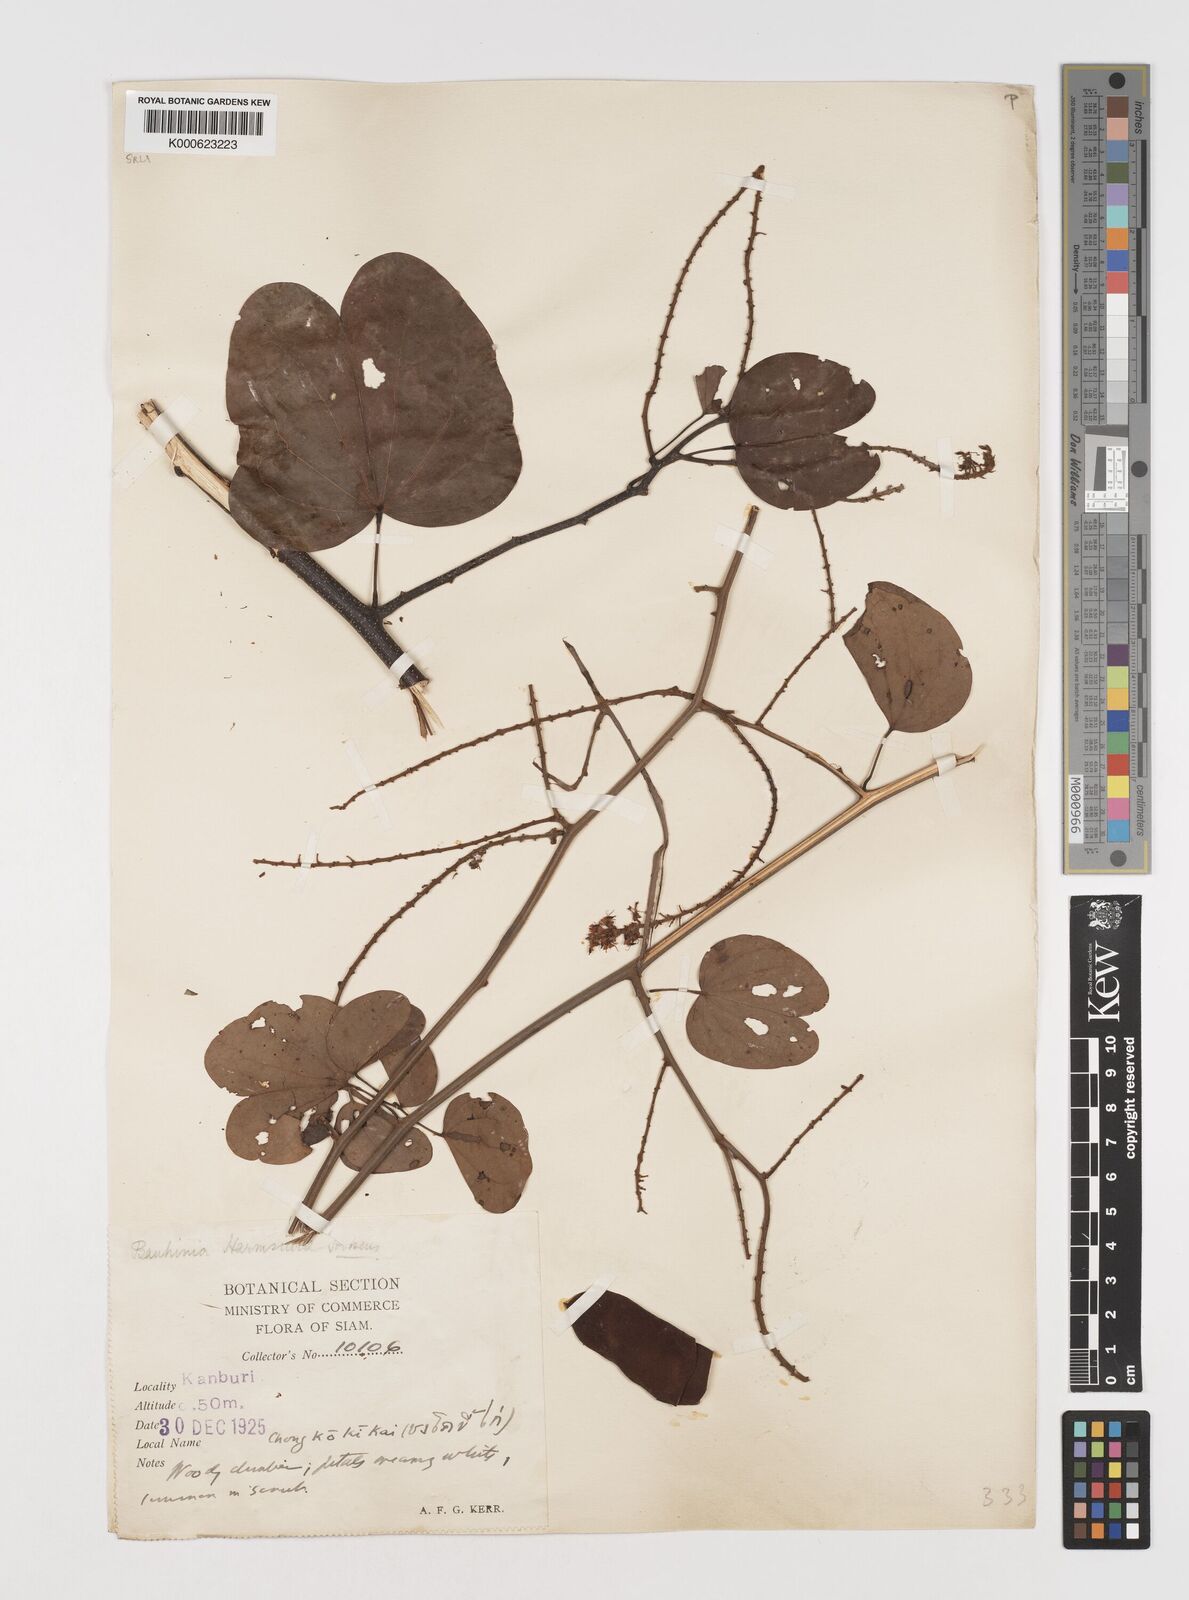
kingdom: Plantae
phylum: Tracheophyta
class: Magnoliopsida
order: Fabales
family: Fabaceae
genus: Phanera
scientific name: Phanera harmsiana
